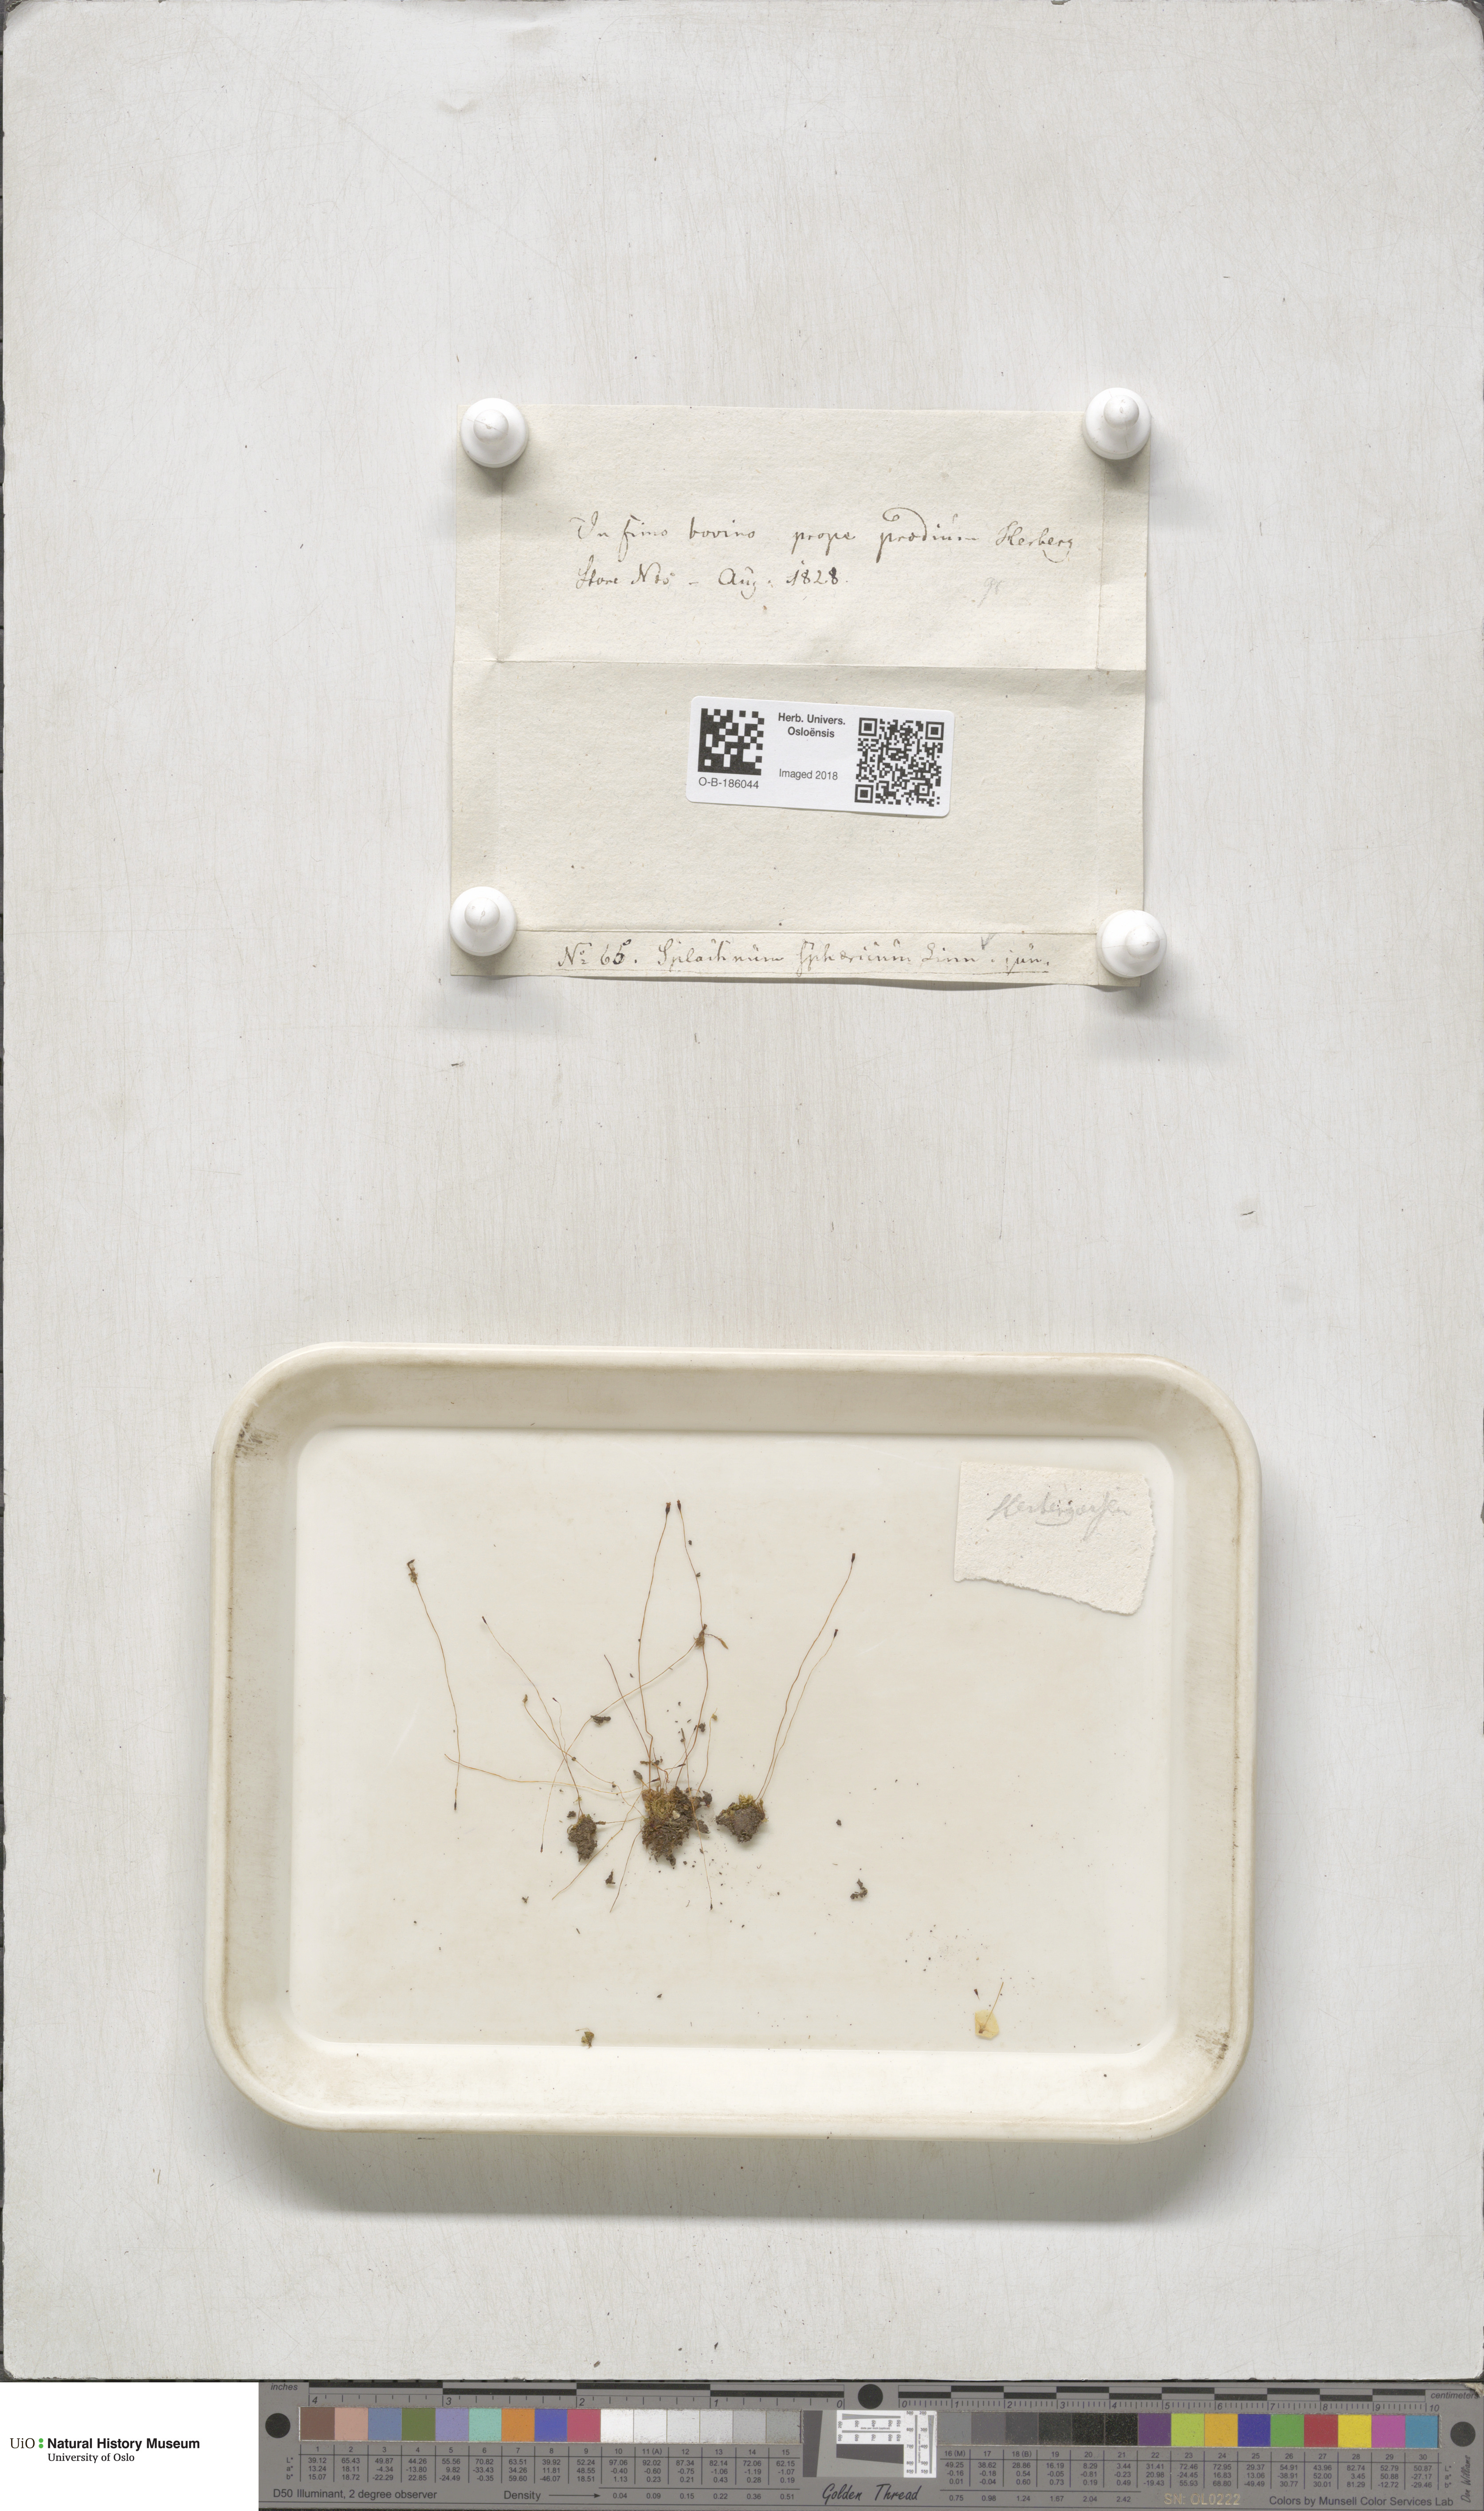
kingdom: Plantae
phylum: Bryophyta
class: Bryopsida
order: Splachnales
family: Splachnaceae
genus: Splachnum
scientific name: Splachnum sphaericum
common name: Round-fruited dung moss
